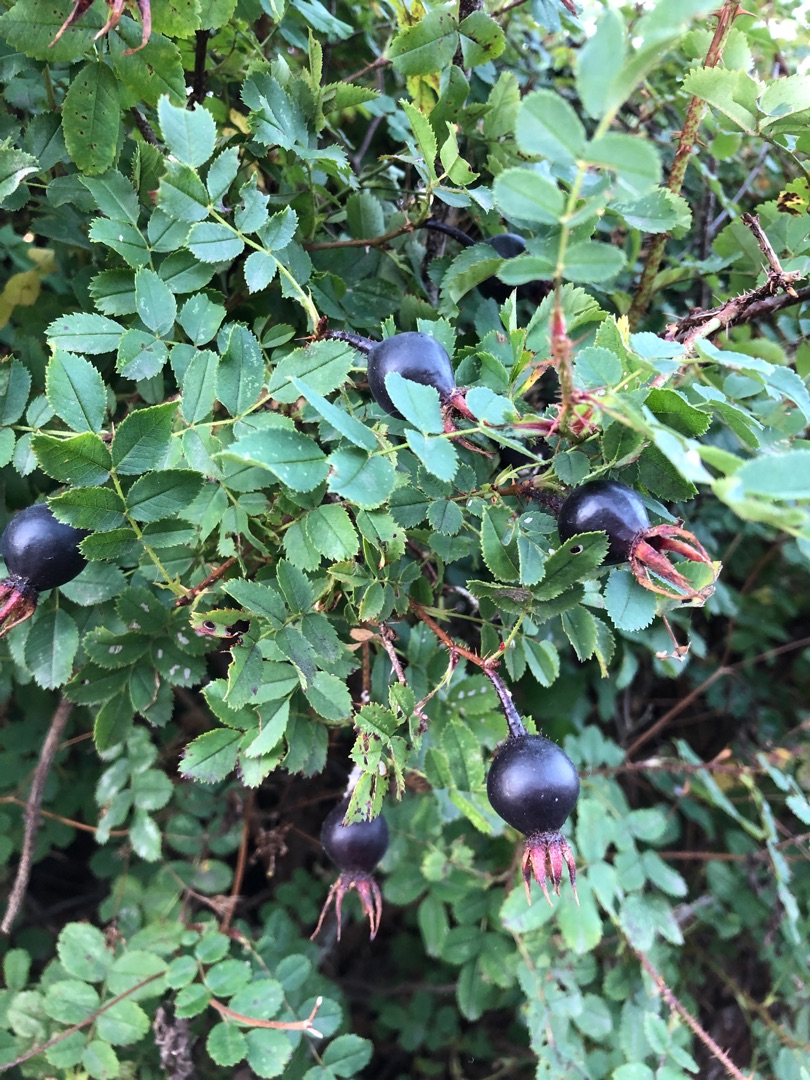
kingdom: Plantae
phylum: Tracheophyta
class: Magnoliopsida
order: Rosales
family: Rosaceae
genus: Rosa
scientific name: Rosa spinosissima
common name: Klit-rose
